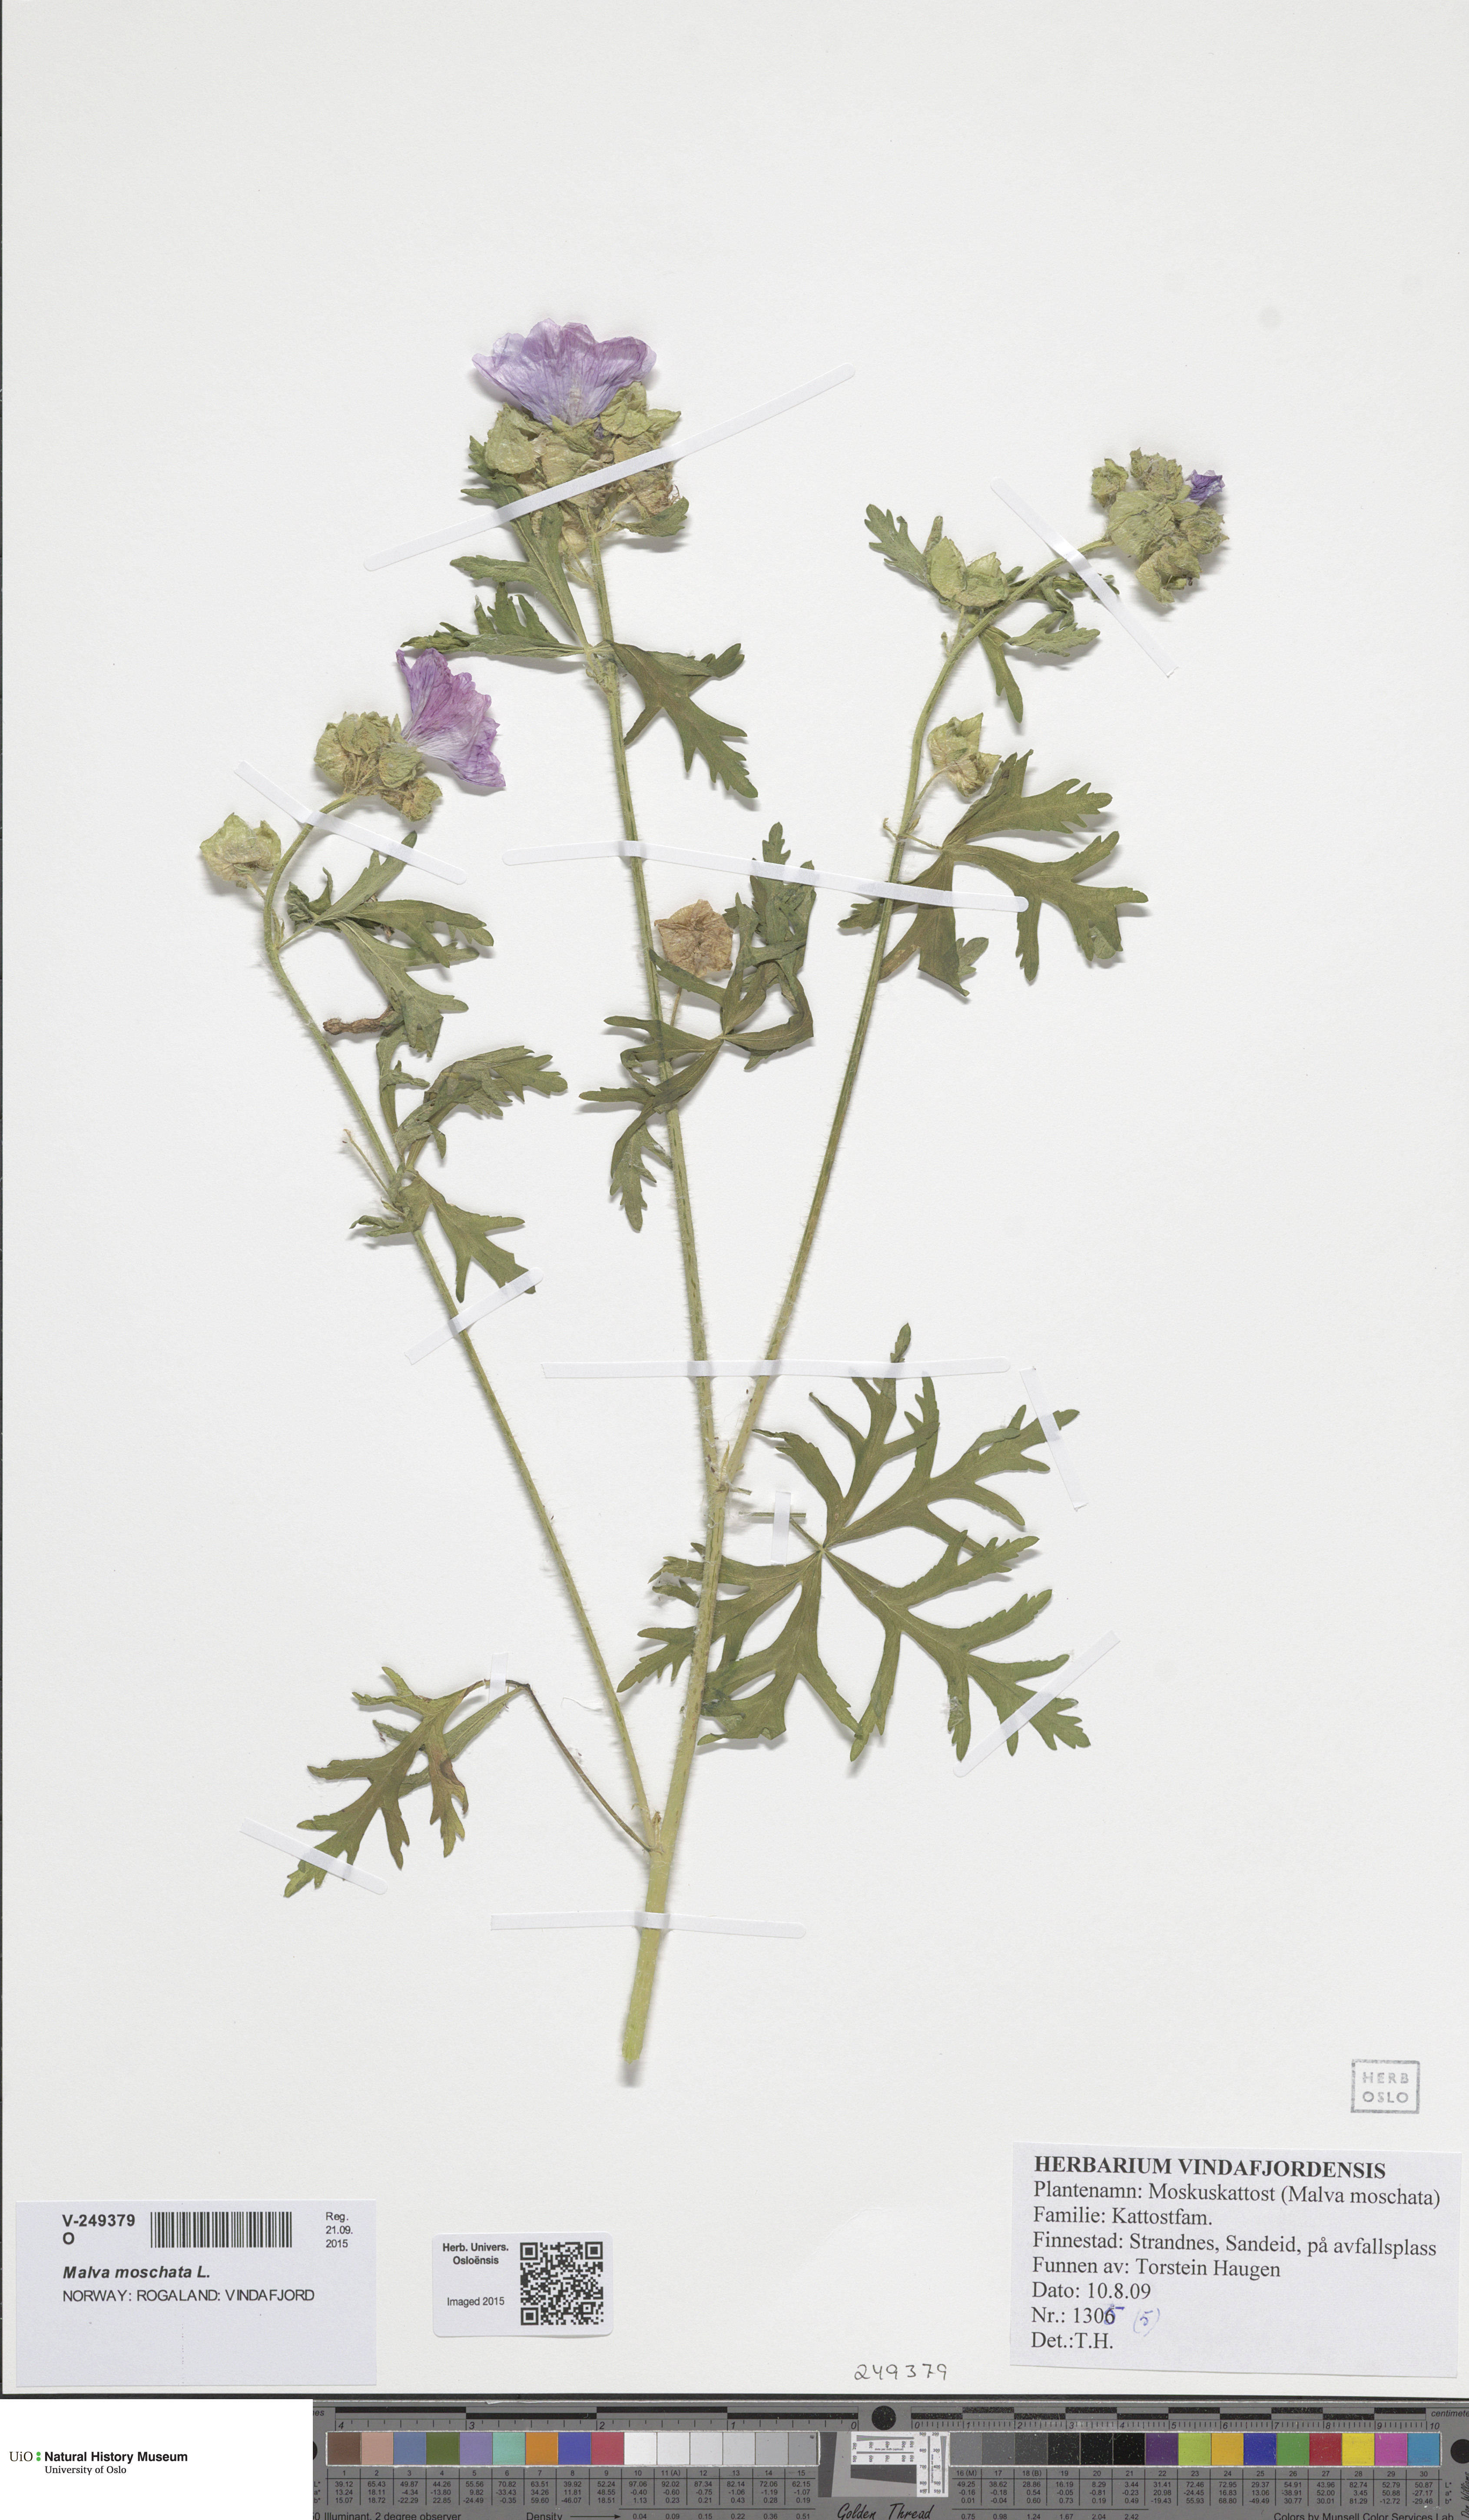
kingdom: Plantae
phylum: Tracheophyta
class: Magnoliopsida
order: Malvales
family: Malvaceae
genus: Malva
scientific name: Malva moschata
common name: Musk mallow
